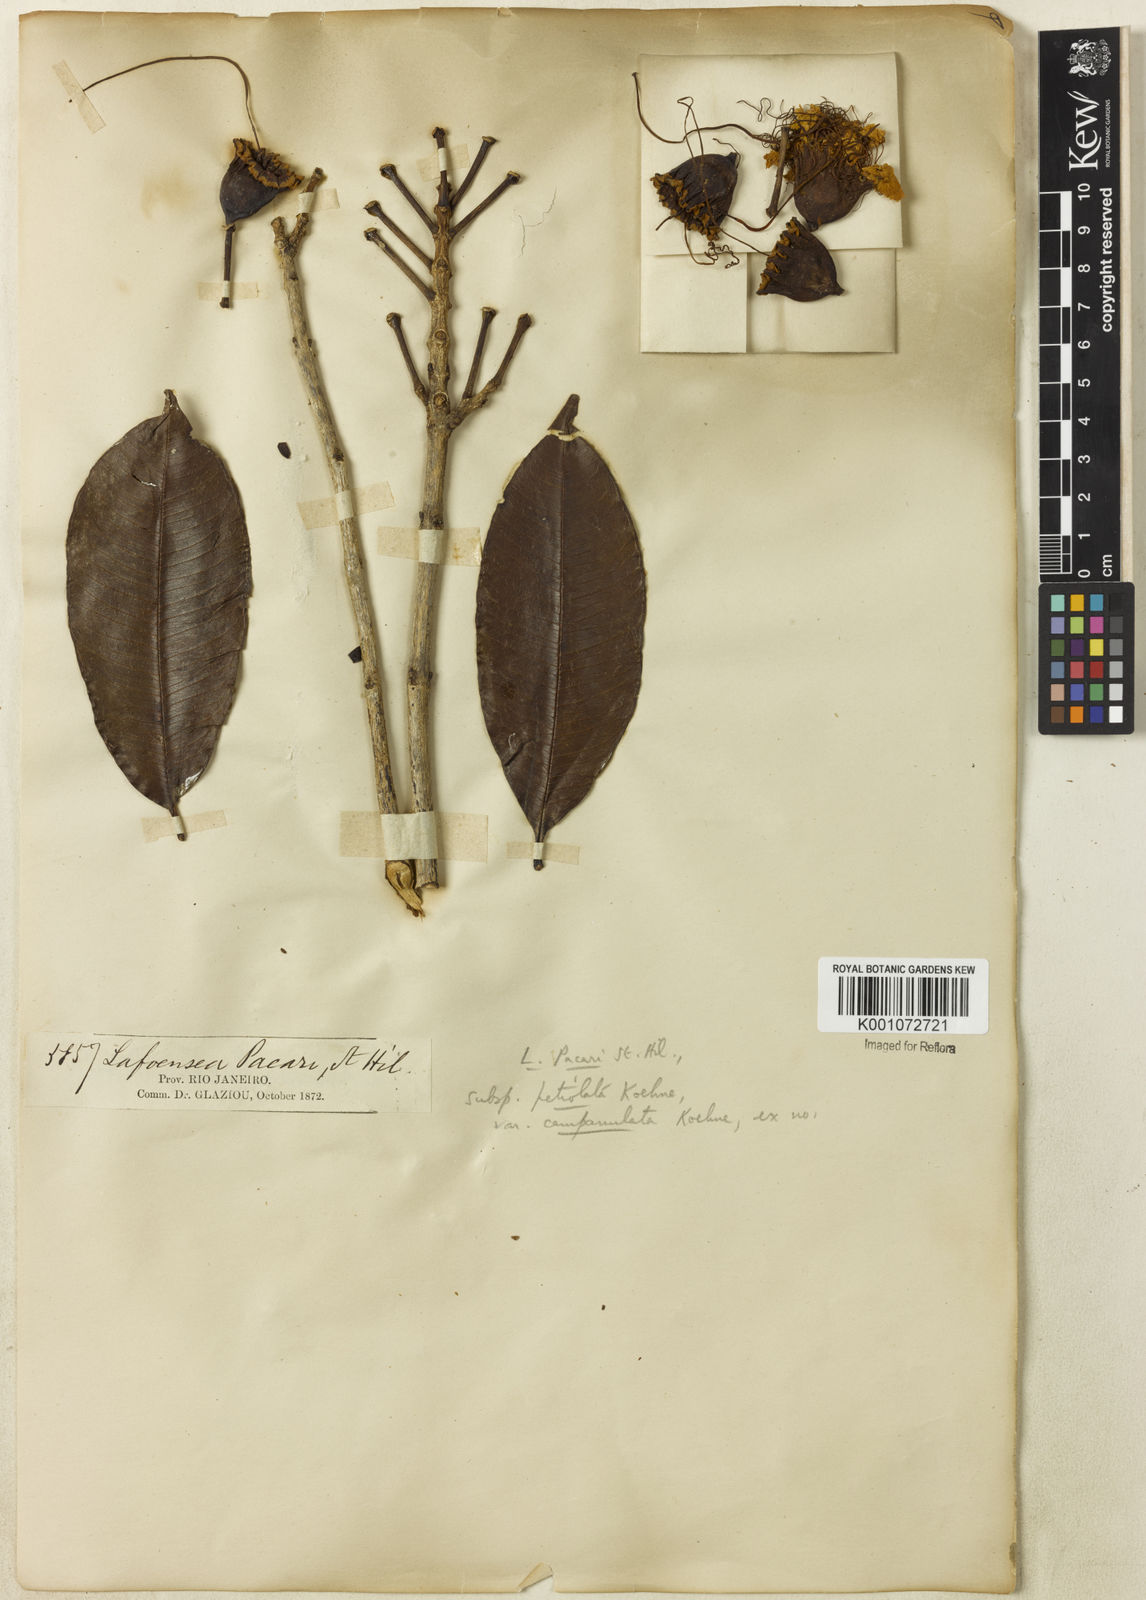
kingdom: Plantae
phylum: Tracheophyta
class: Magnoliopsida
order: Myrtales
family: Lythraceae
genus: Lafoensia
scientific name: Lafoensia pacari
